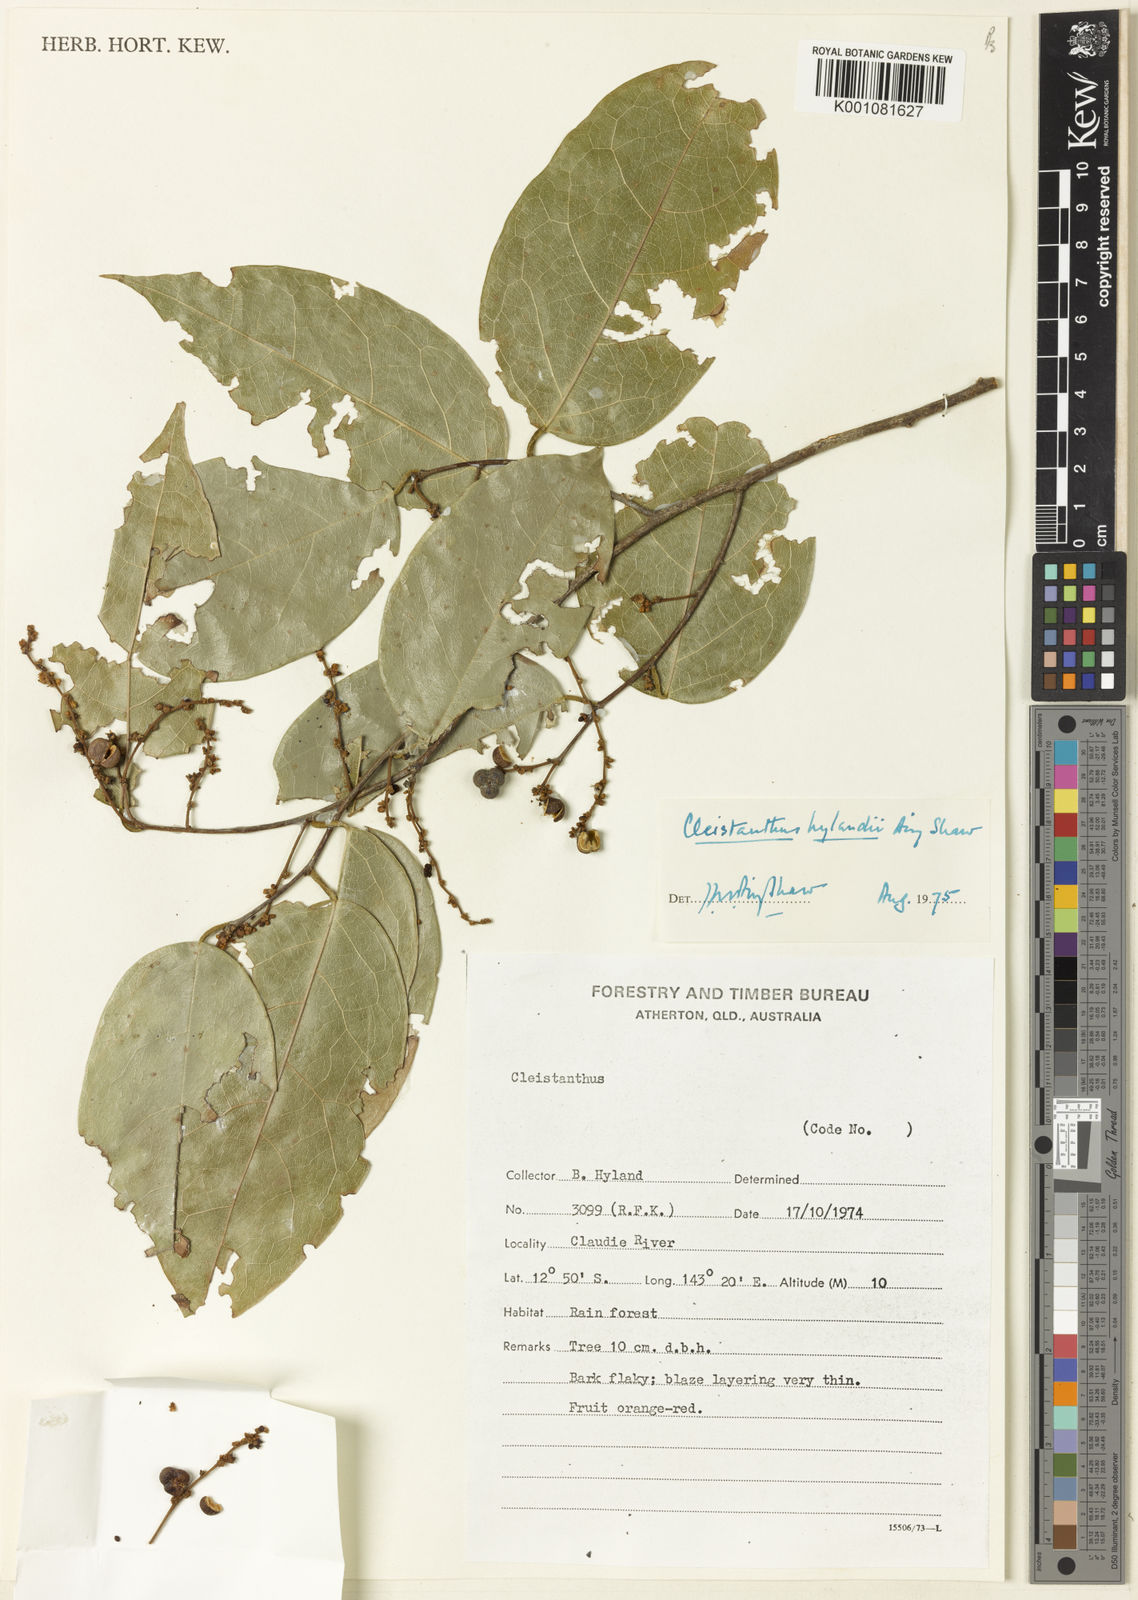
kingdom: Plantae
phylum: Tracheophyta
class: Magnoliopsida
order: Malpighiales
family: Phyllanthaceae
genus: Cleistanthus
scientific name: Cleistanthus hylandii
